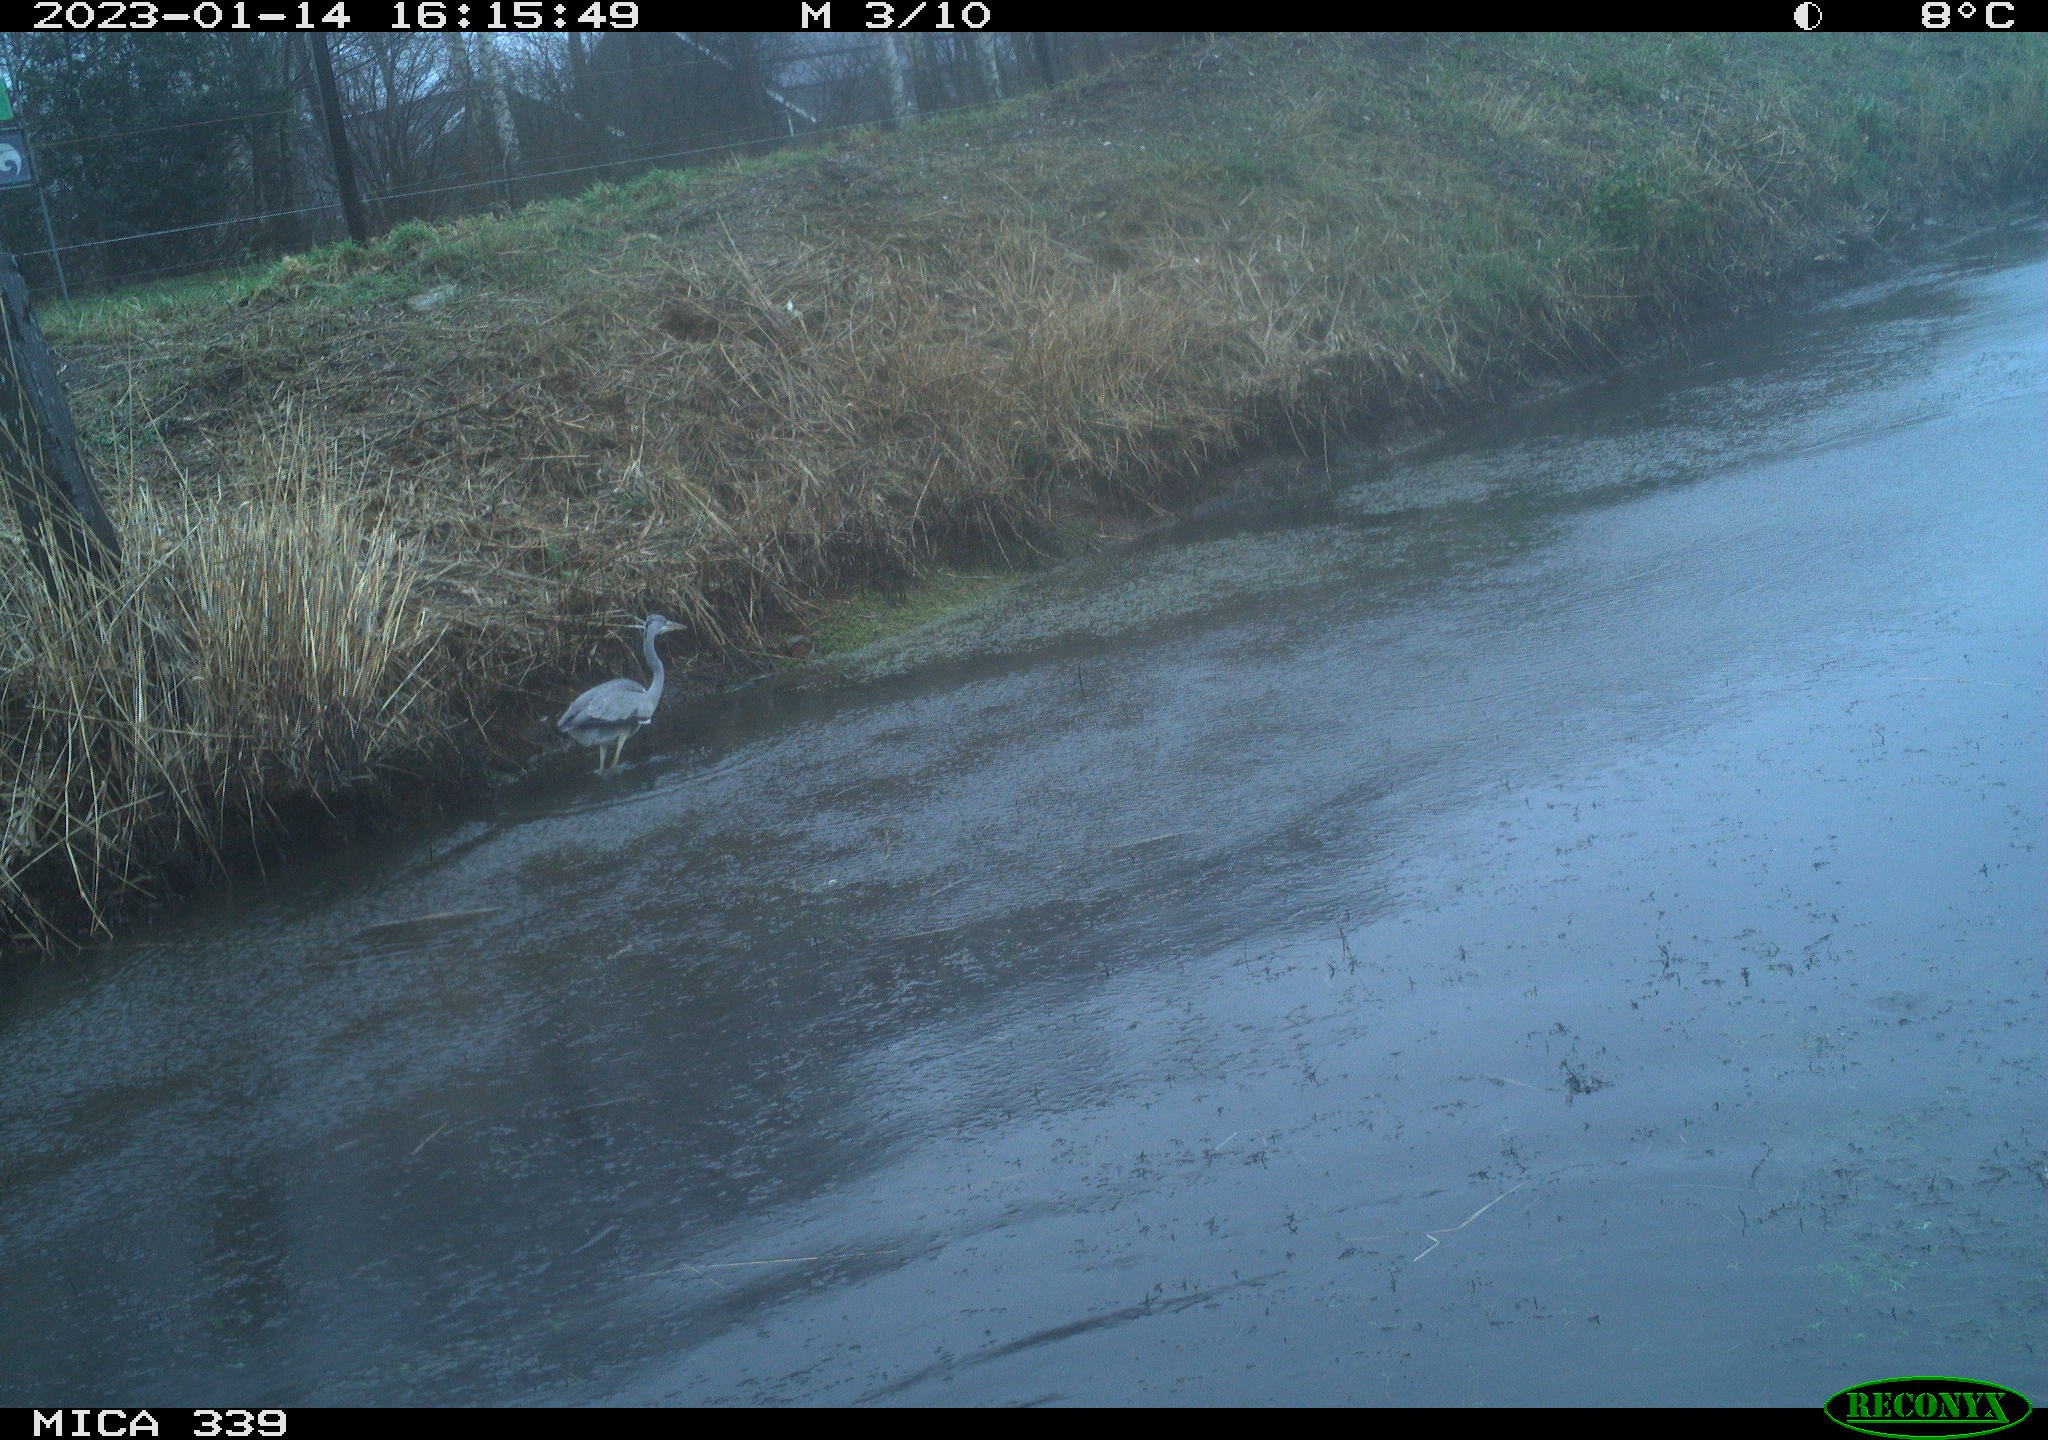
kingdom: Animalia
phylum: Chordata
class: Aves
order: Pelecaniformes
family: Ardeidae
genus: Ardea
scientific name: Ardea cinerea
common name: Grey heron
